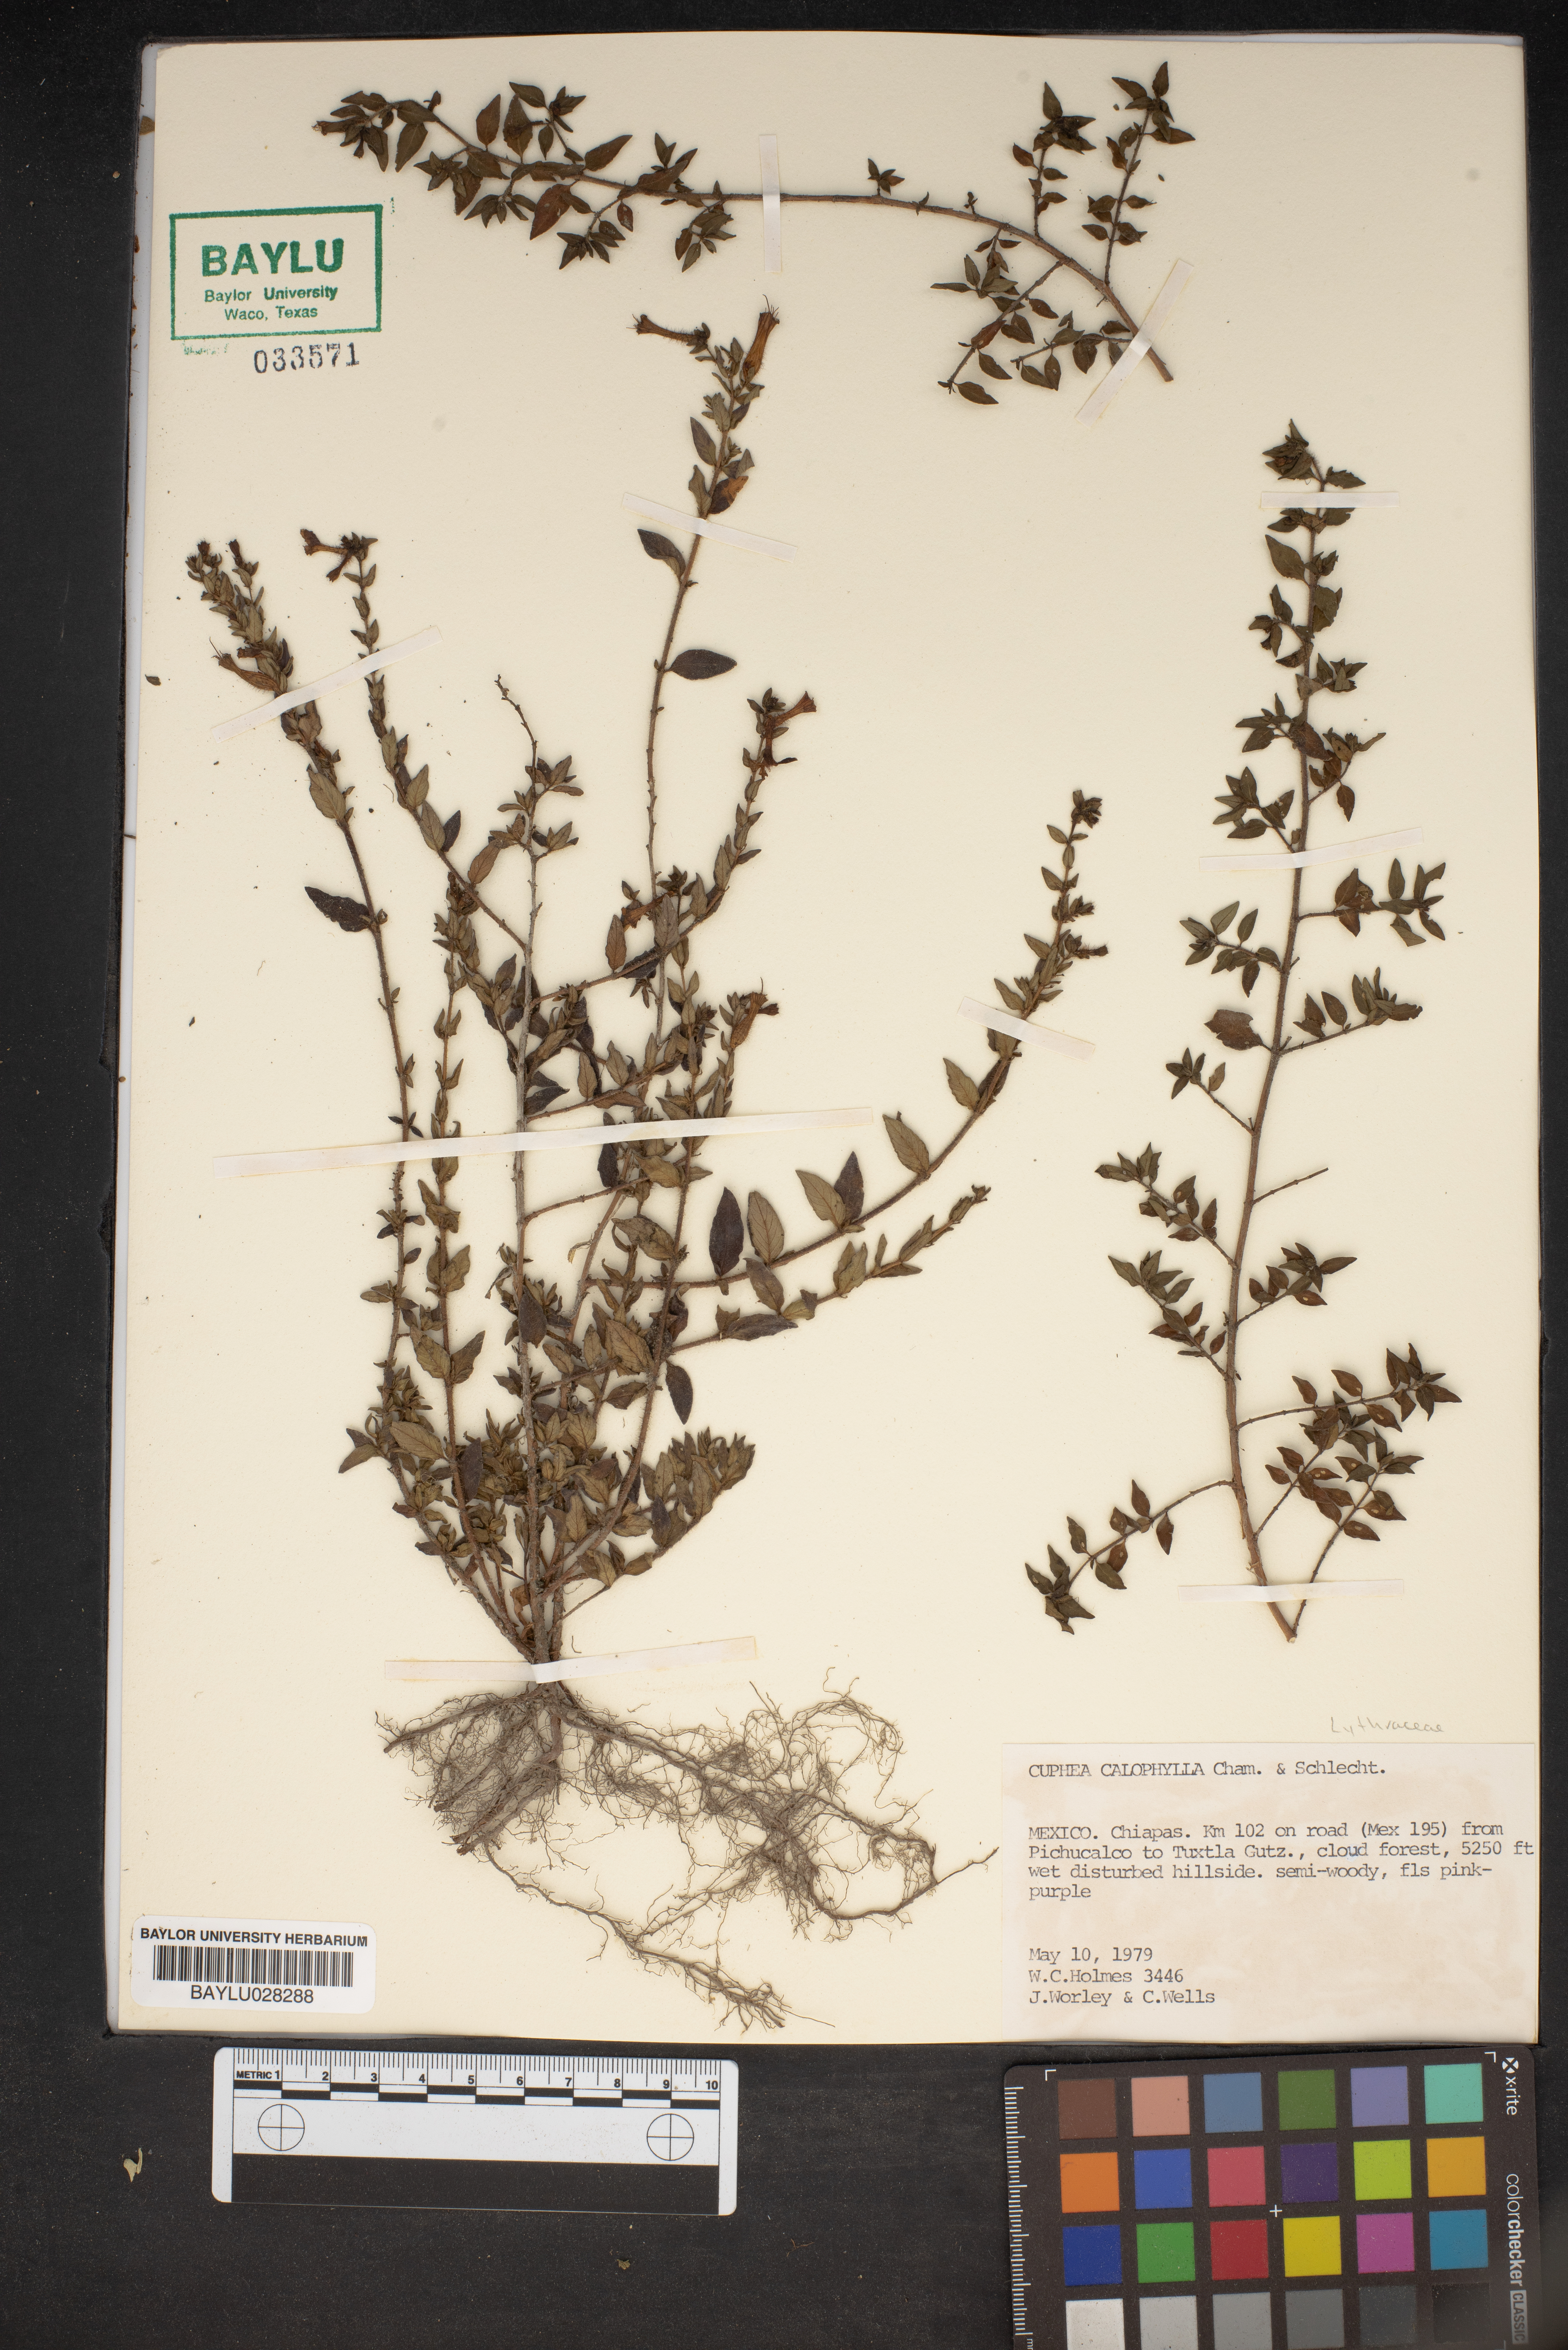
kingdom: Plantae
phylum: Tracheophyta
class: Magnoliopsida
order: Myrtales
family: Lythraceae
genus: Cuphea
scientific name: Cuphea calophylla
